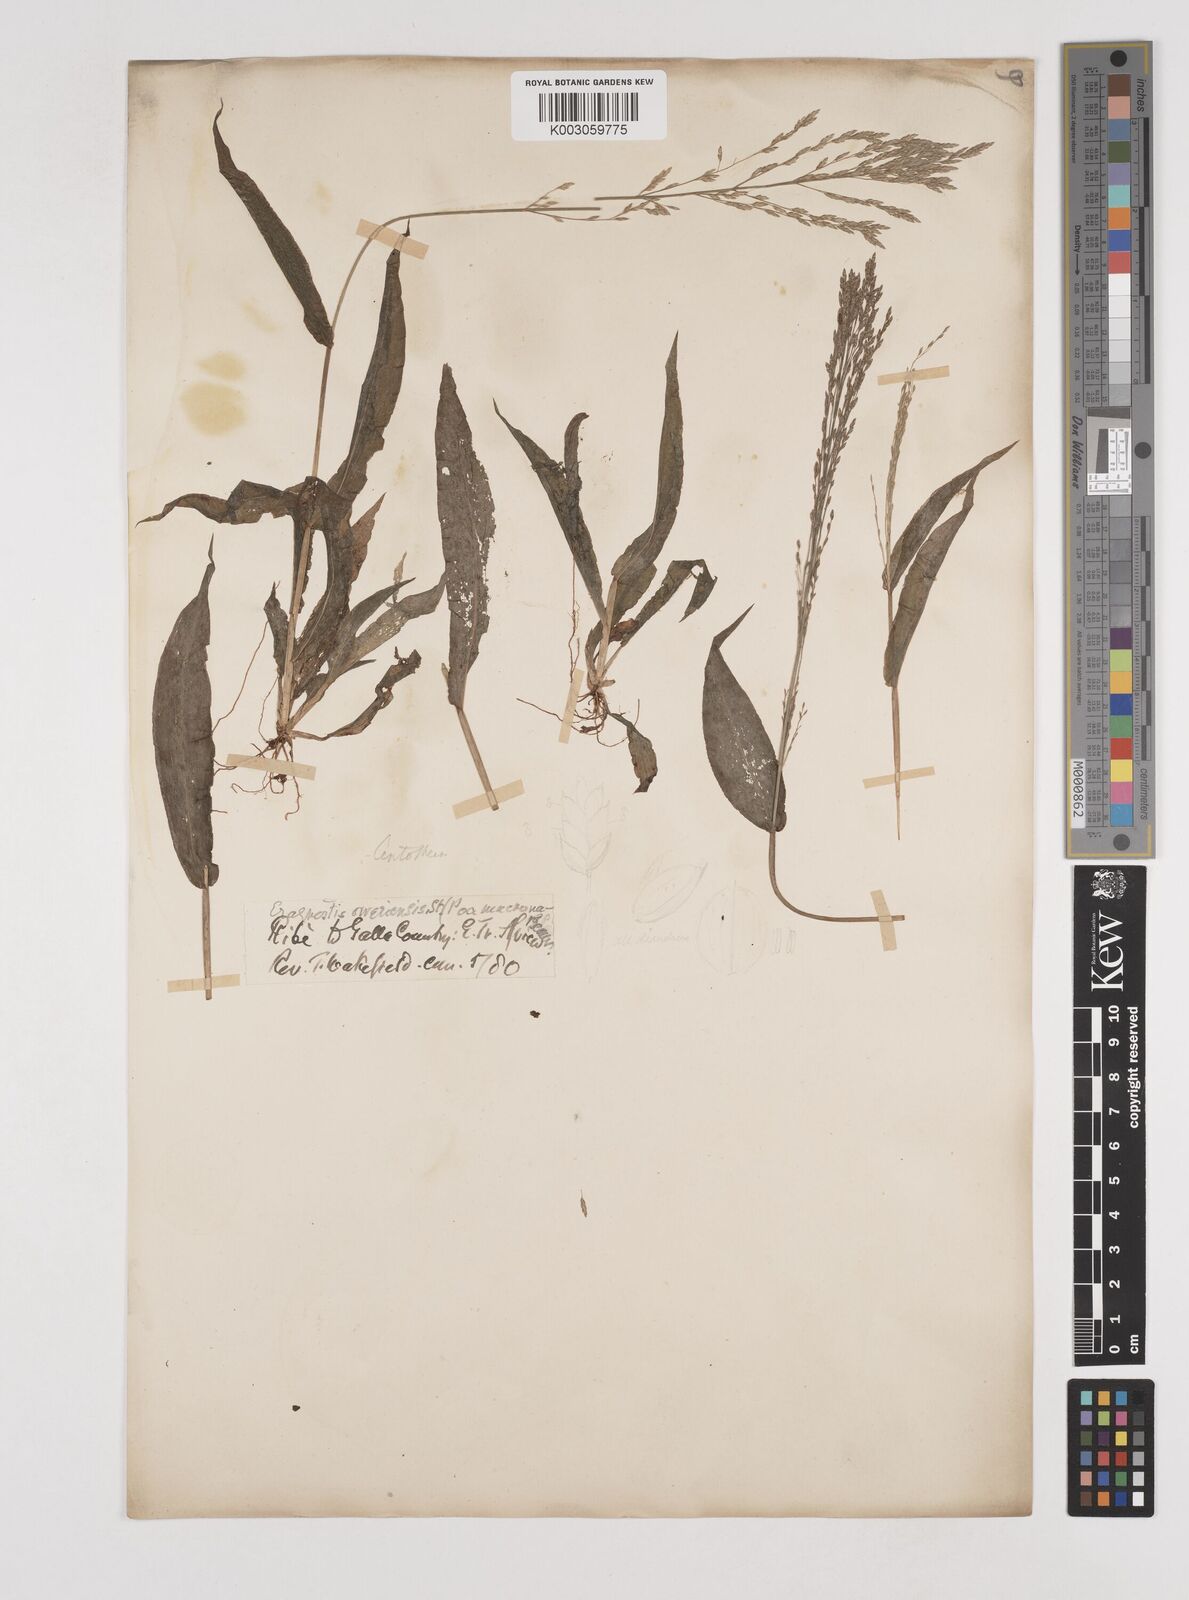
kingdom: Plantae
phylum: Tracheophyta
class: Liliopsida
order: Poales
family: Poaceae
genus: Megastachya
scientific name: Megastachya mucronata
